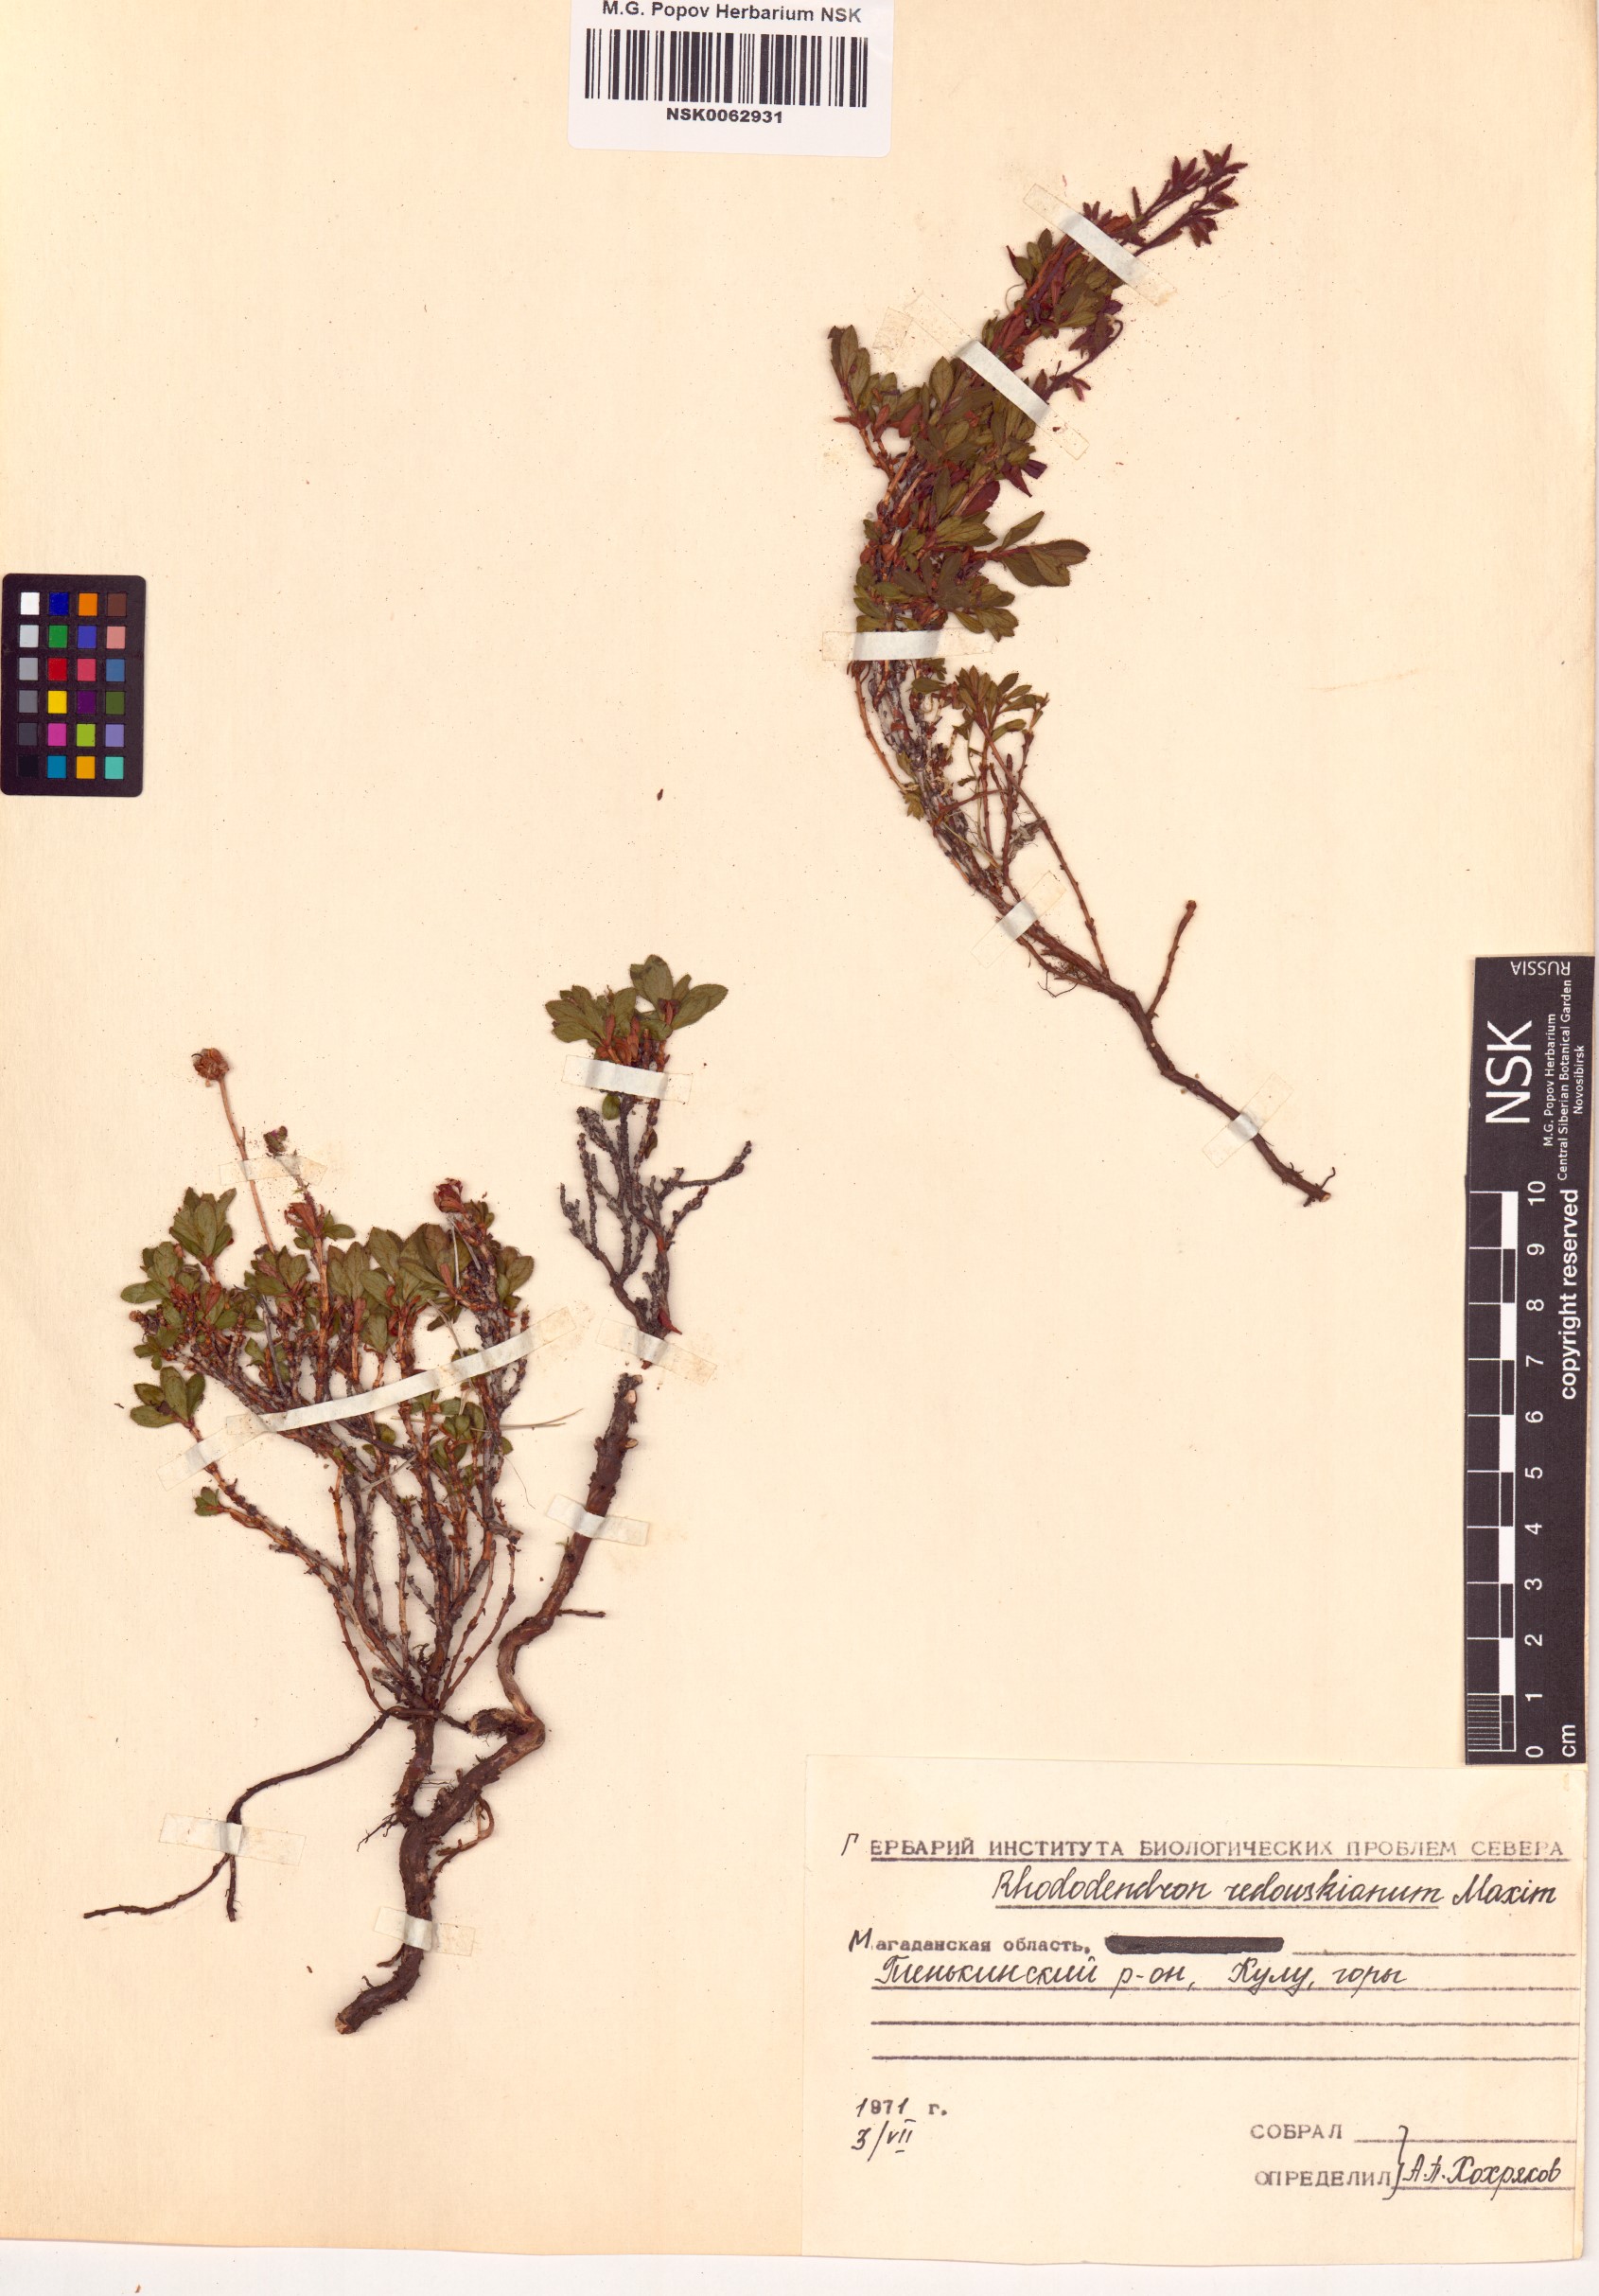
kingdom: Plantae
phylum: Tracheophyta
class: Magnoliopsida
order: Ericales
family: Ericaceae
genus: Rhododendron
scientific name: Rhododendron redowskianum
